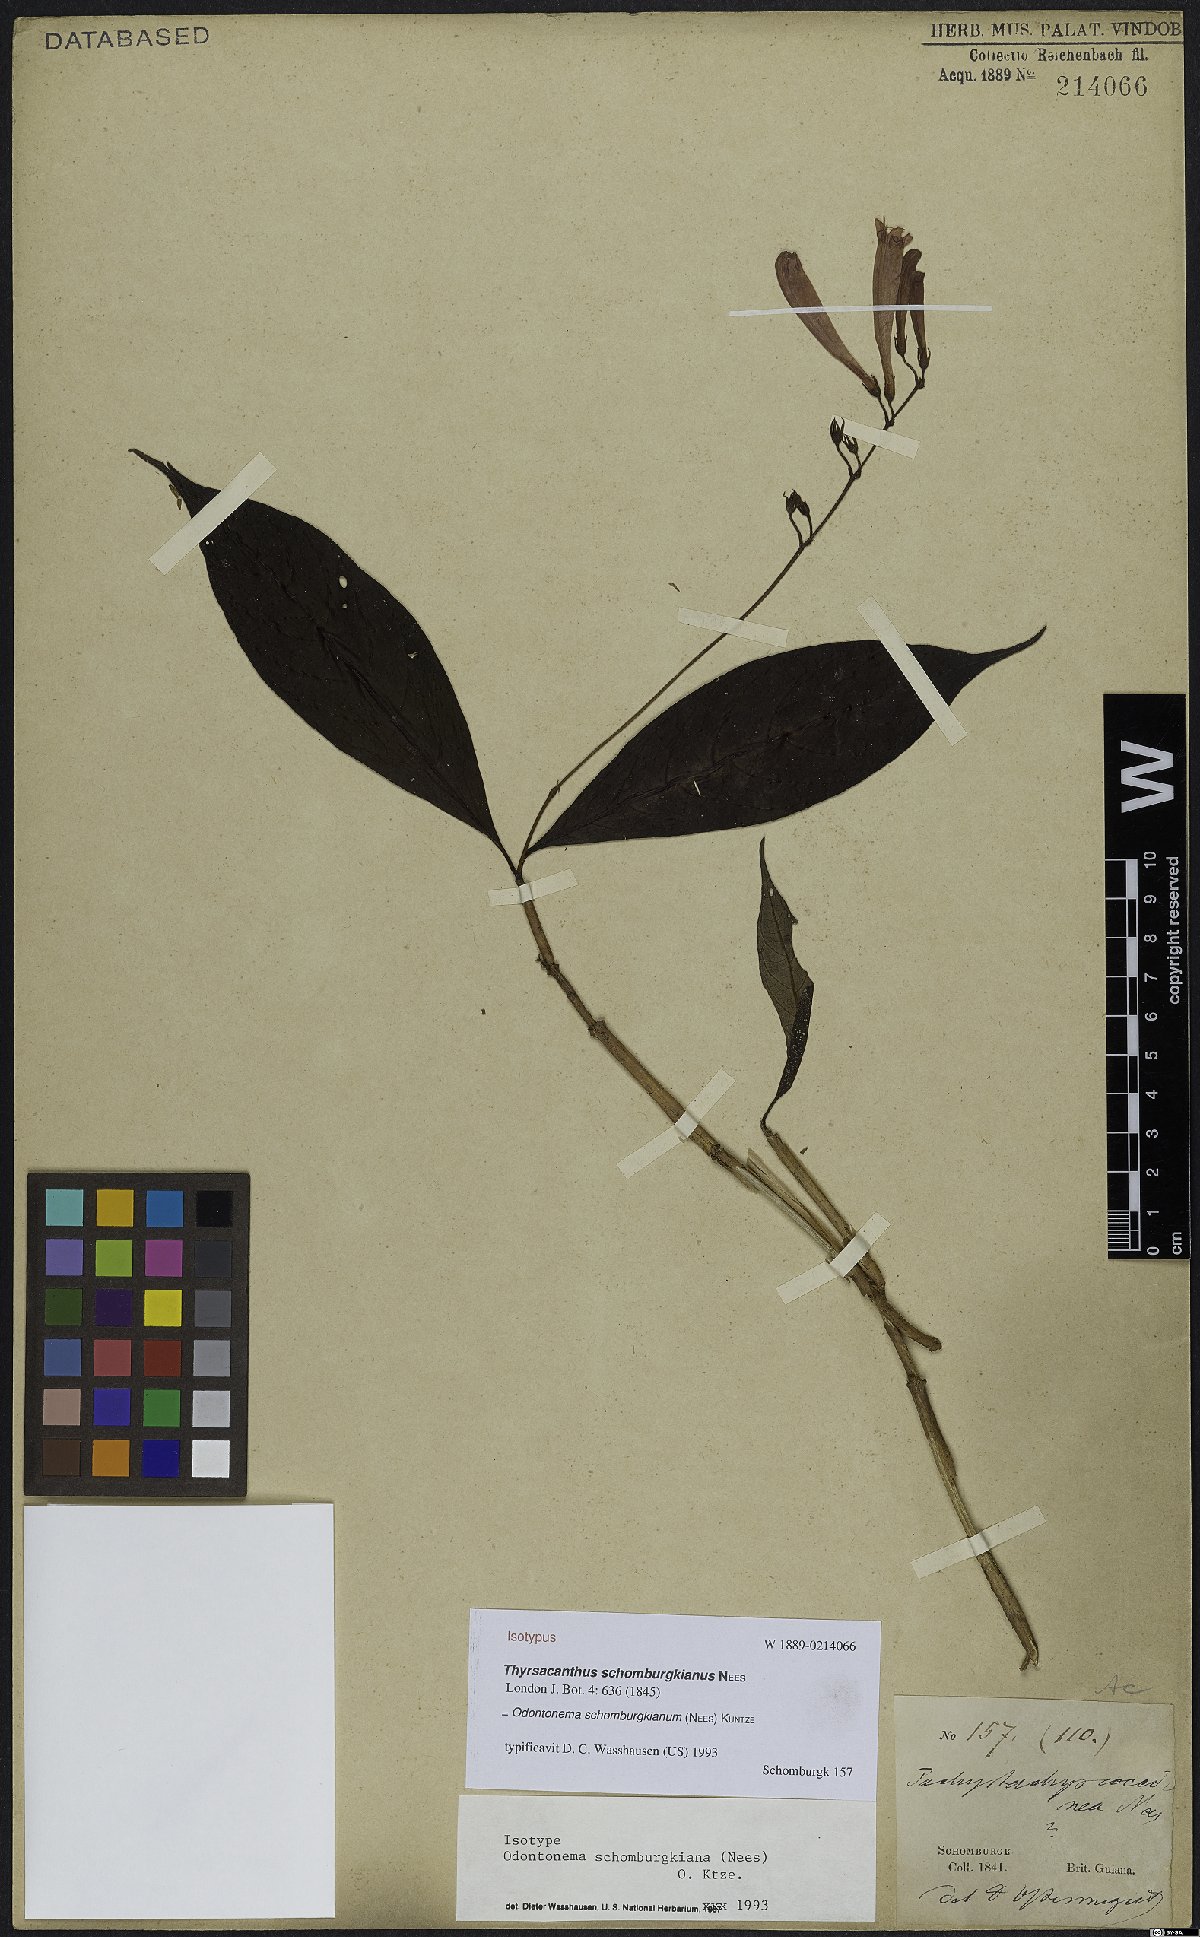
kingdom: Plantae
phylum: Tracheophyta
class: Magnoliopsida
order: Lamiales
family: Acanthaceae
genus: Odontonema
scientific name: Odontonema schomburgkianum
